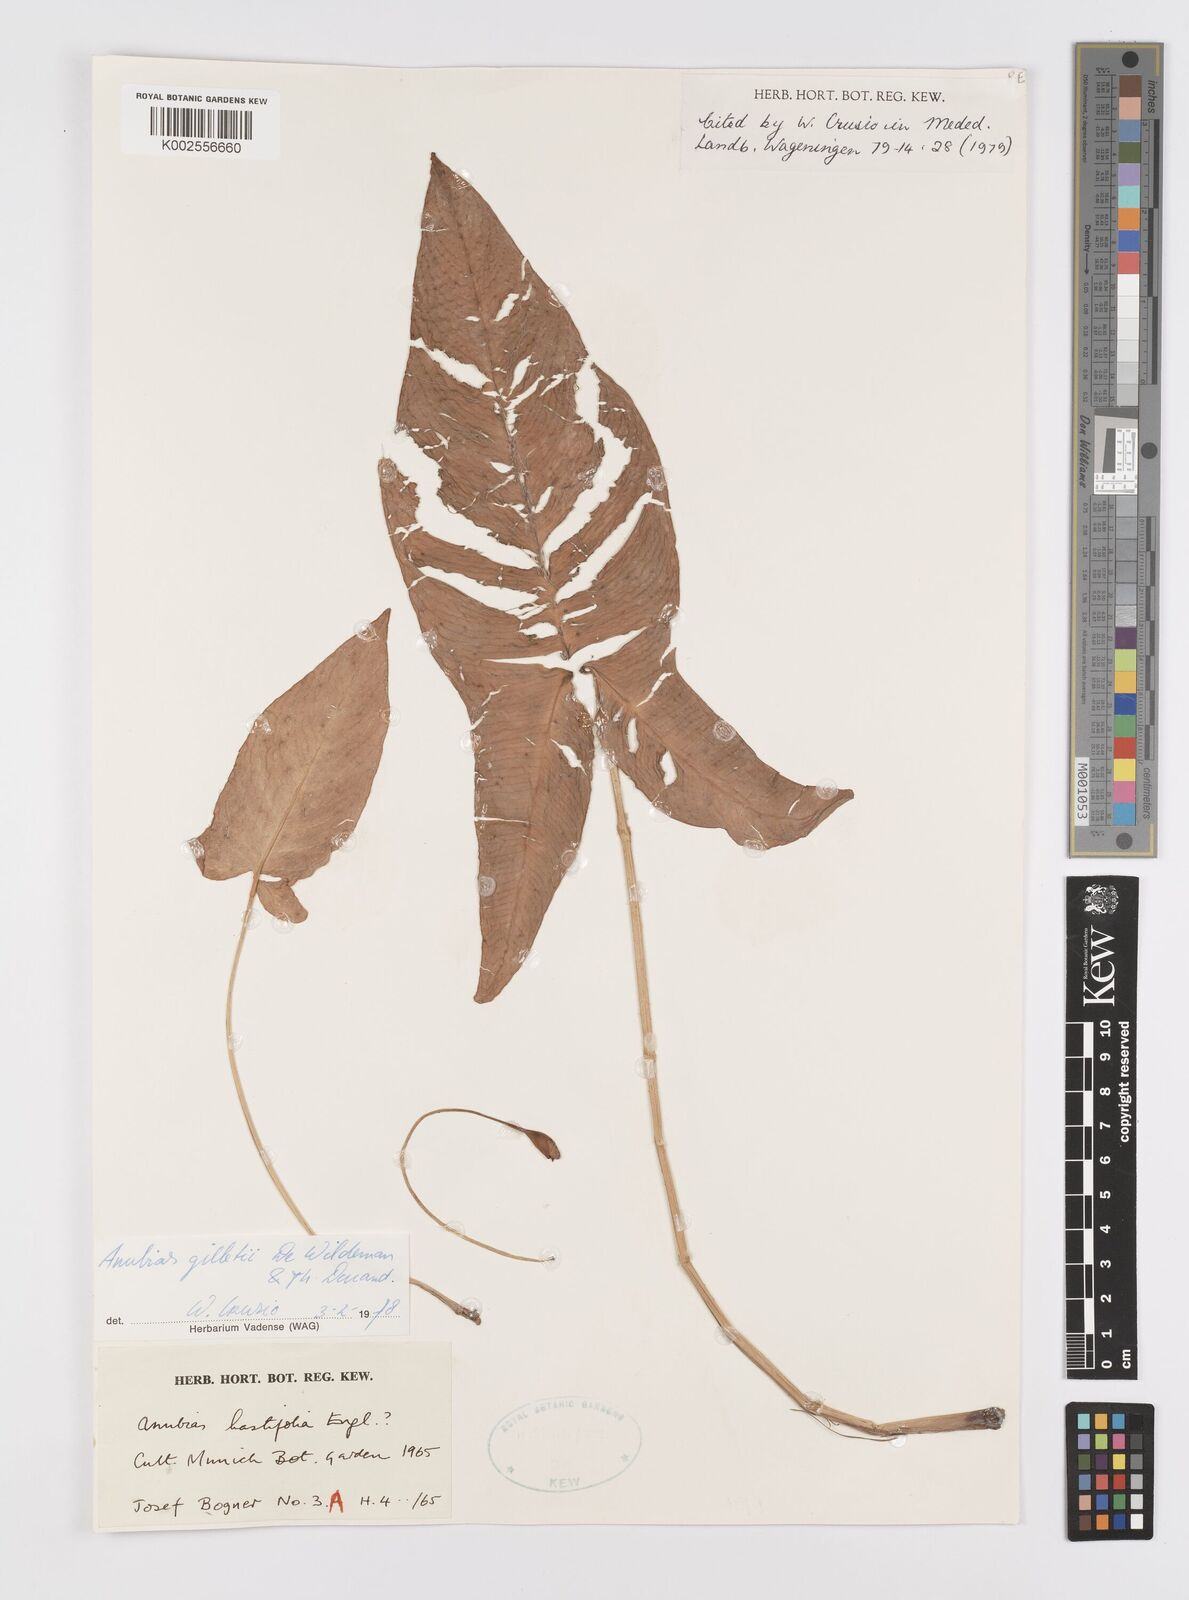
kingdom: Plantae
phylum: Tracheophyta
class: Liliopsida
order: Alismatales
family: Araceae
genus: Anubias
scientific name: Anubias gilletii
